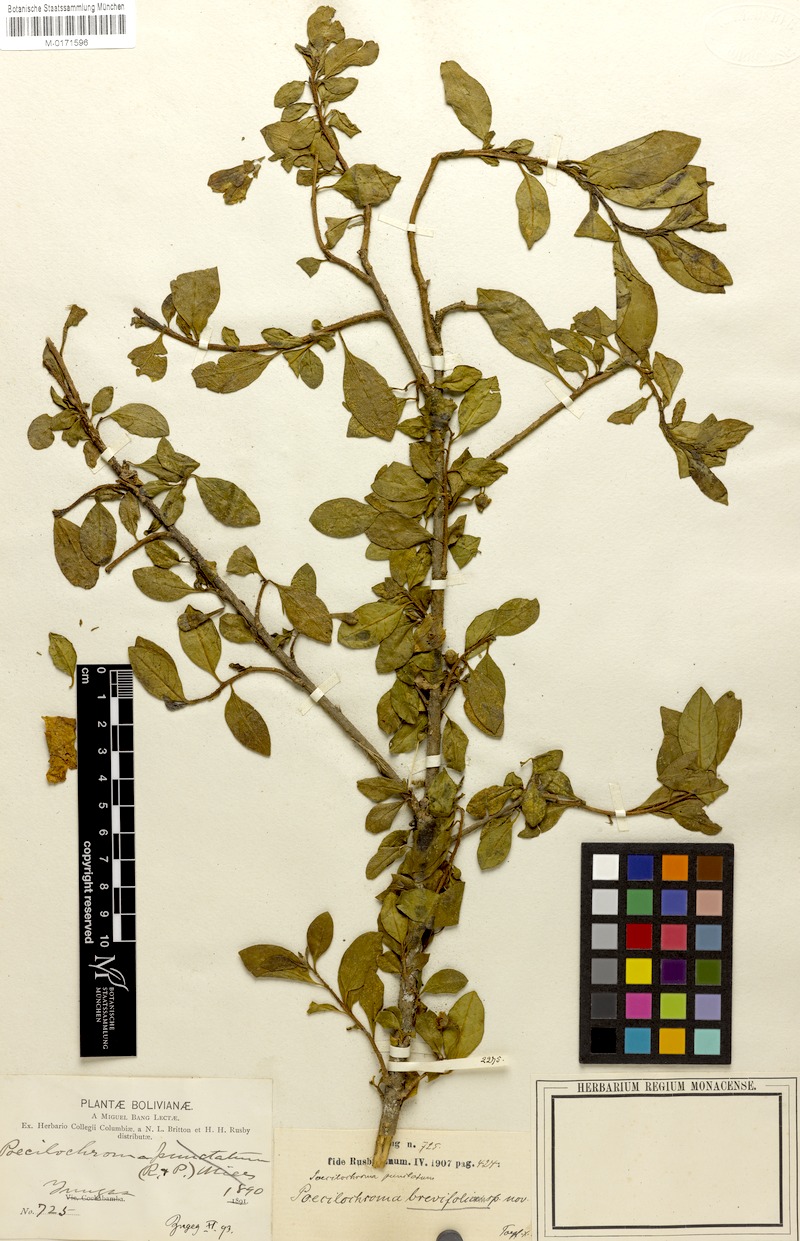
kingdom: Plantae
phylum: Tracheophyta
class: Magnoliopsida
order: Solanales
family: Solanaceae
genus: Saracha
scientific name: Saracha punctata
